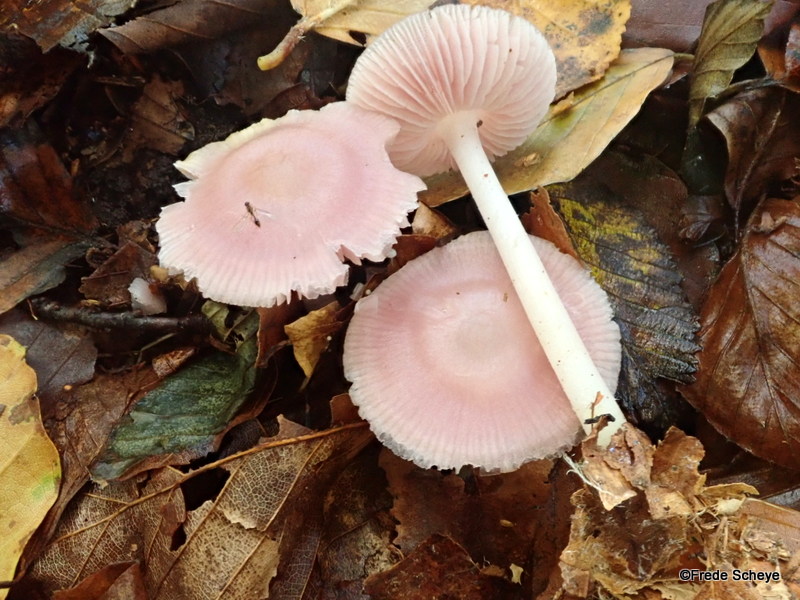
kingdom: Fungi
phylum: Basidiomycota
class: Agaricomycetes
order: Agaricales
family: Mycenaceae
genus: Mycena
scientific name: Mycena rosea
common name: rosa huesvamp
